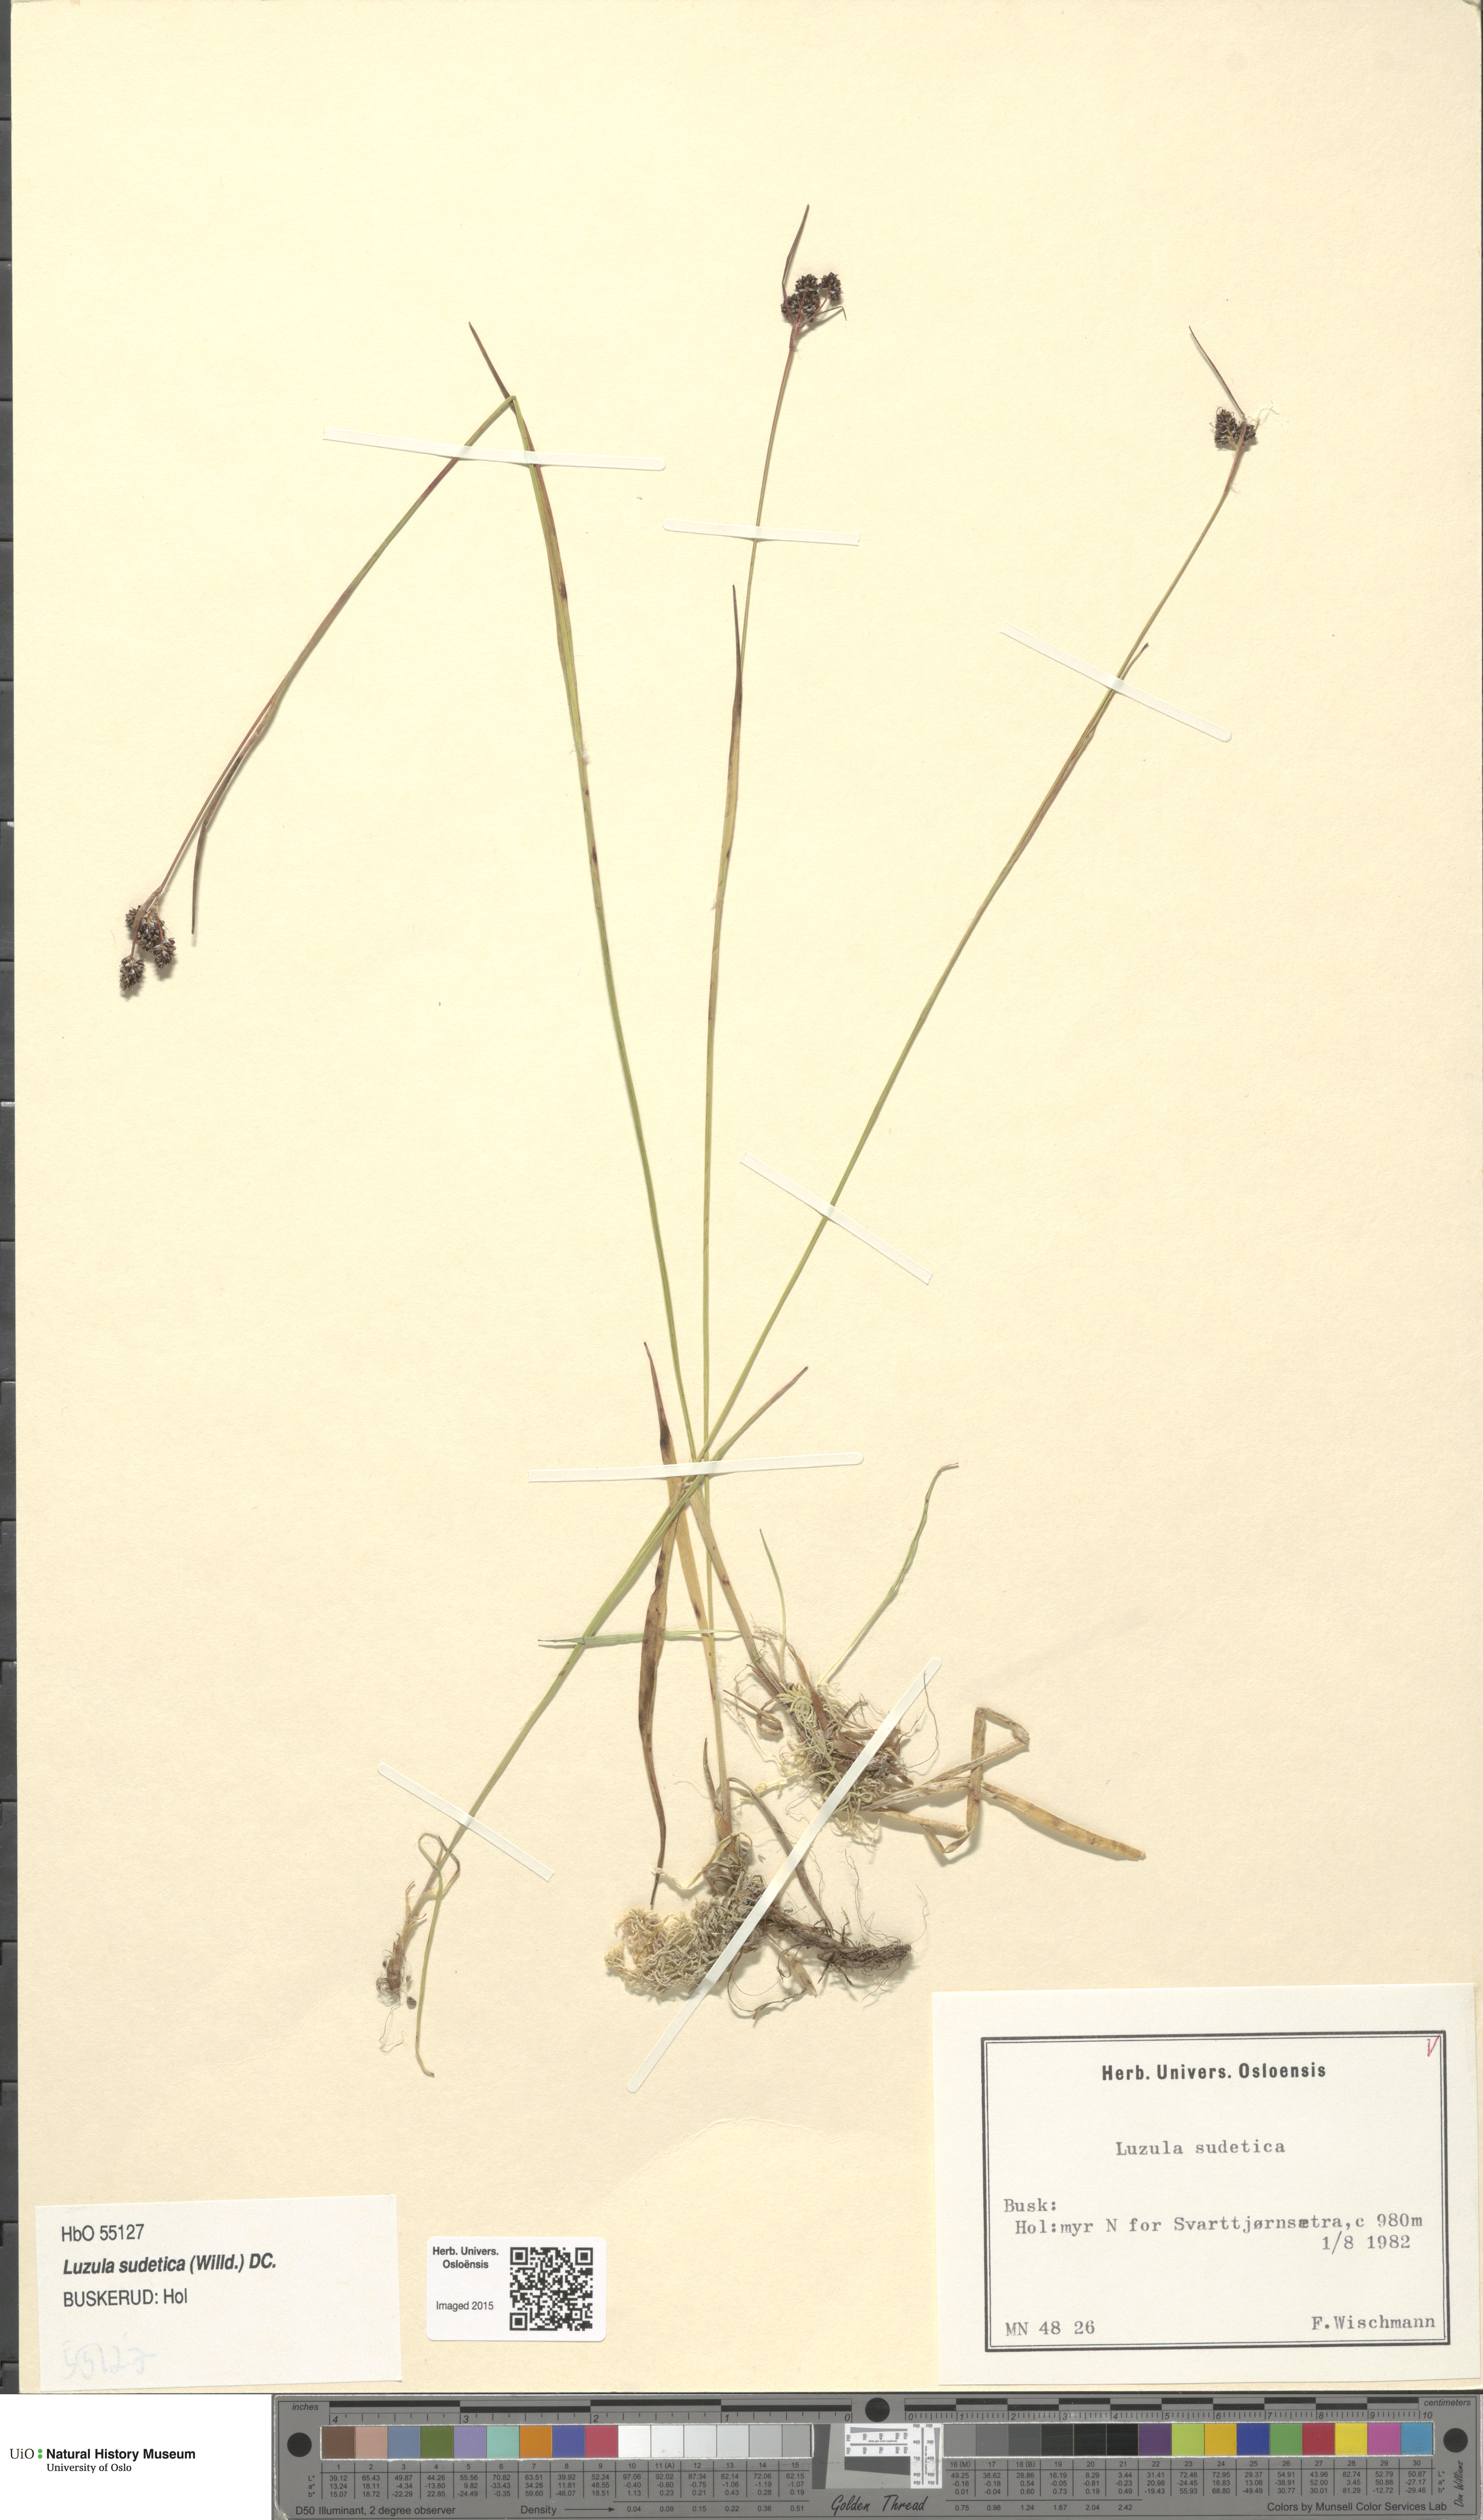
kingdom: Plantae
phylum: Tracheophyta
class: Liliopsida
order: Poales
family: Juncaceae
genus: Luzula
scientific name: Luzula sudetica
